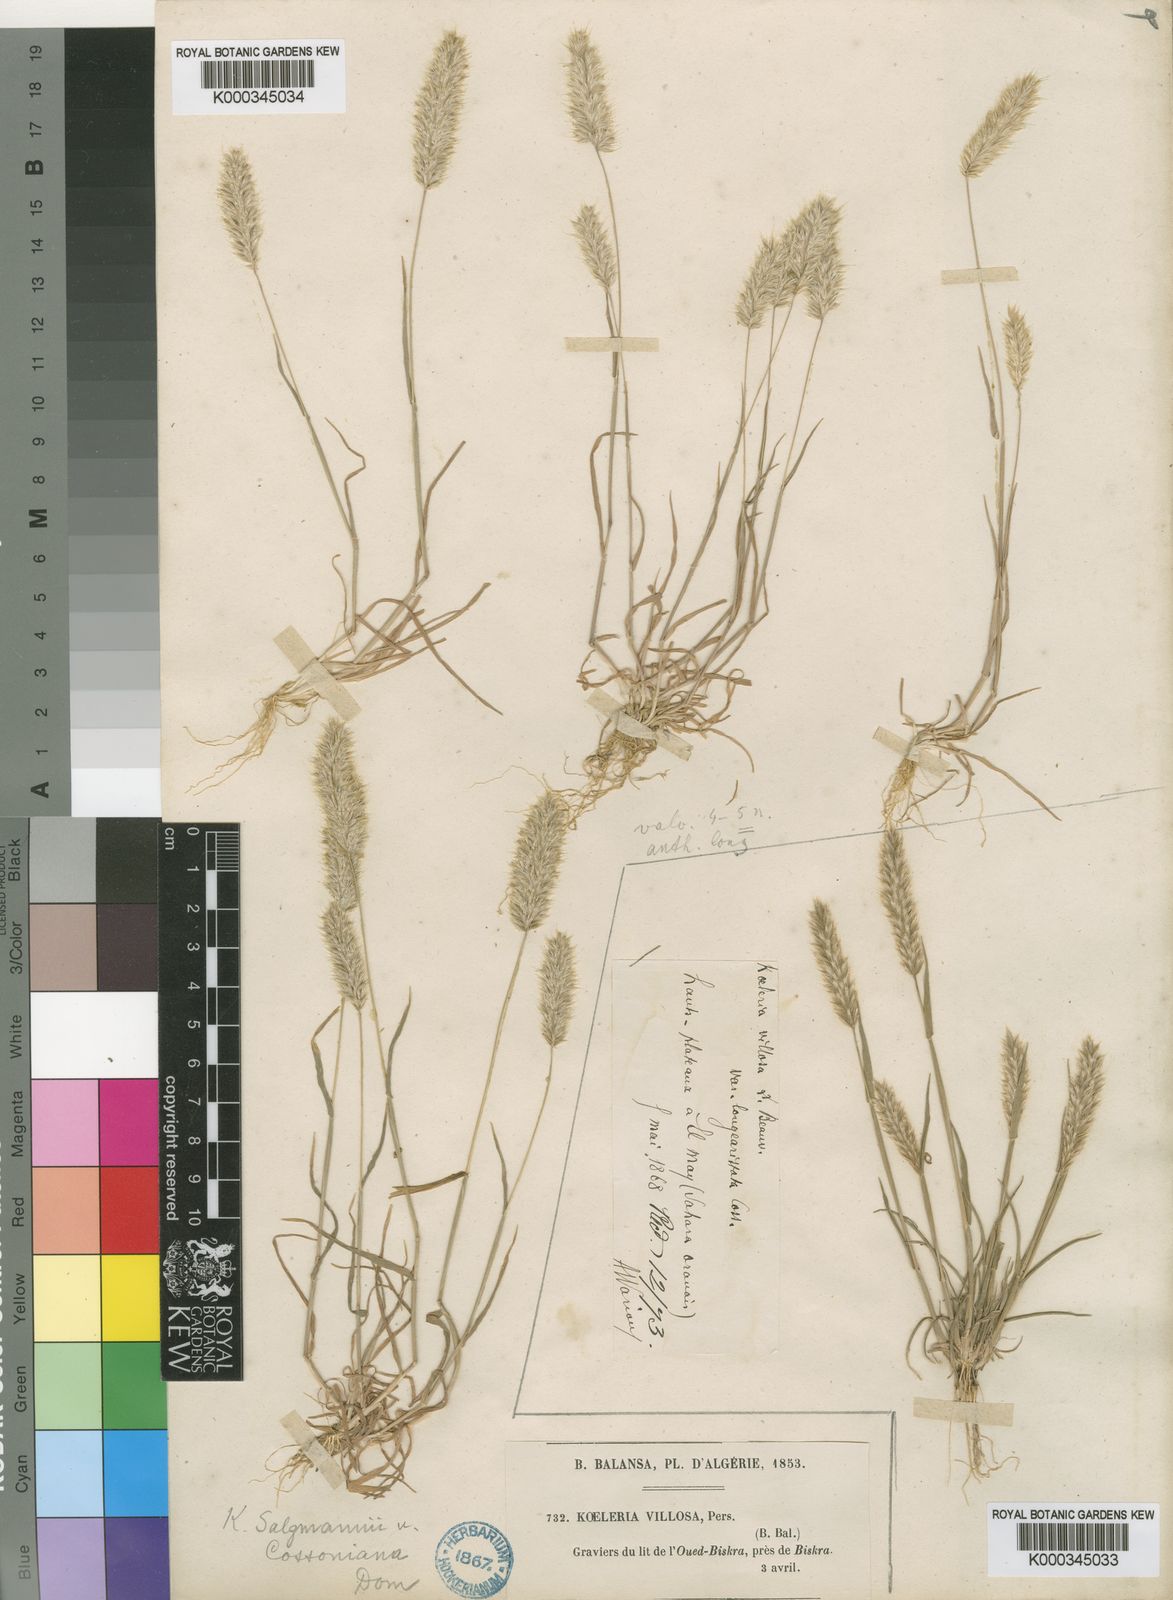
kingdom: Plantae
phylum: Tracheophyta
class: Liliopsida
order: Poales
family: Poaceae
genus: Rostraria
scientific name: Rostraria salzmannii
